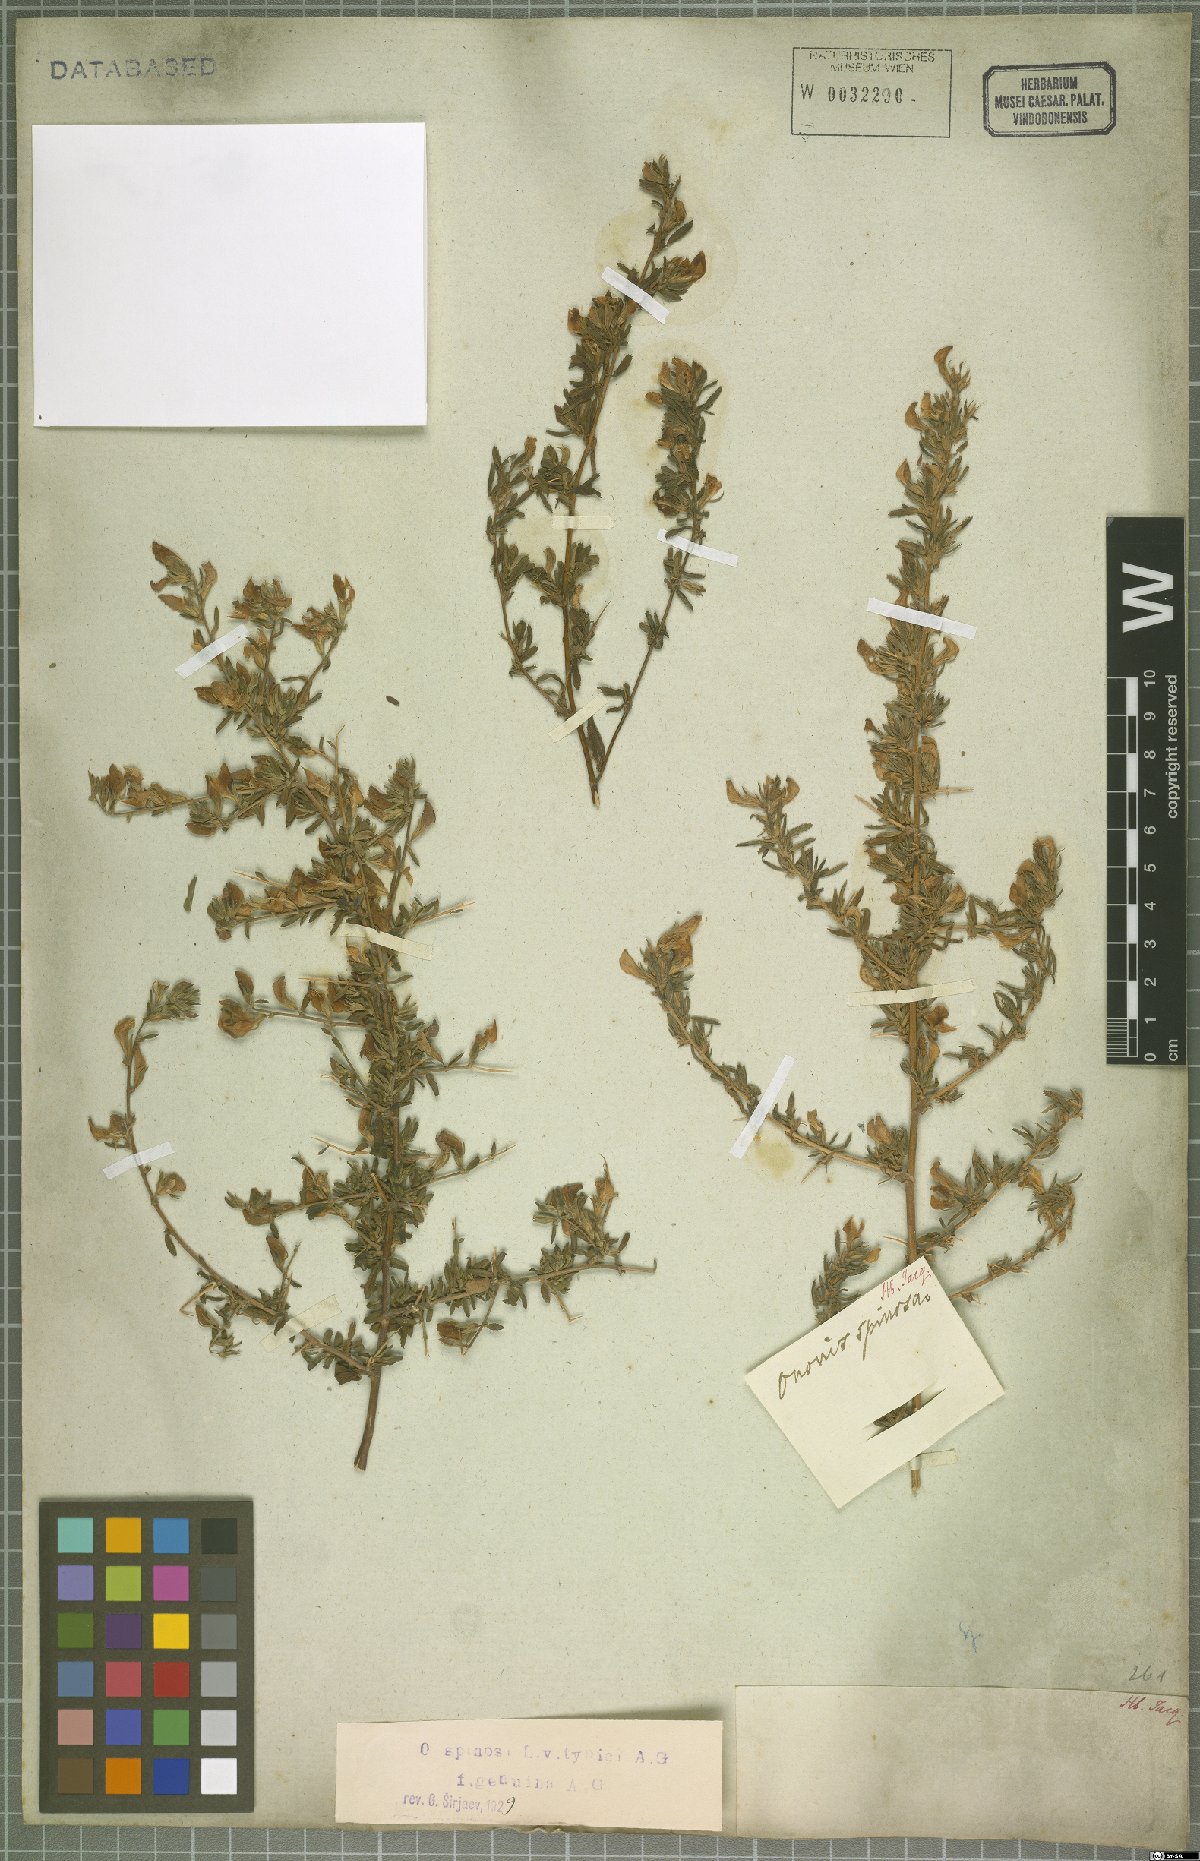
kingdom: Plantae
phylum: Tracheophyta
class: Magnoliopsida
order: Fabales
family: Fabaceae
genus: Ononis
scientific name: Ononis
